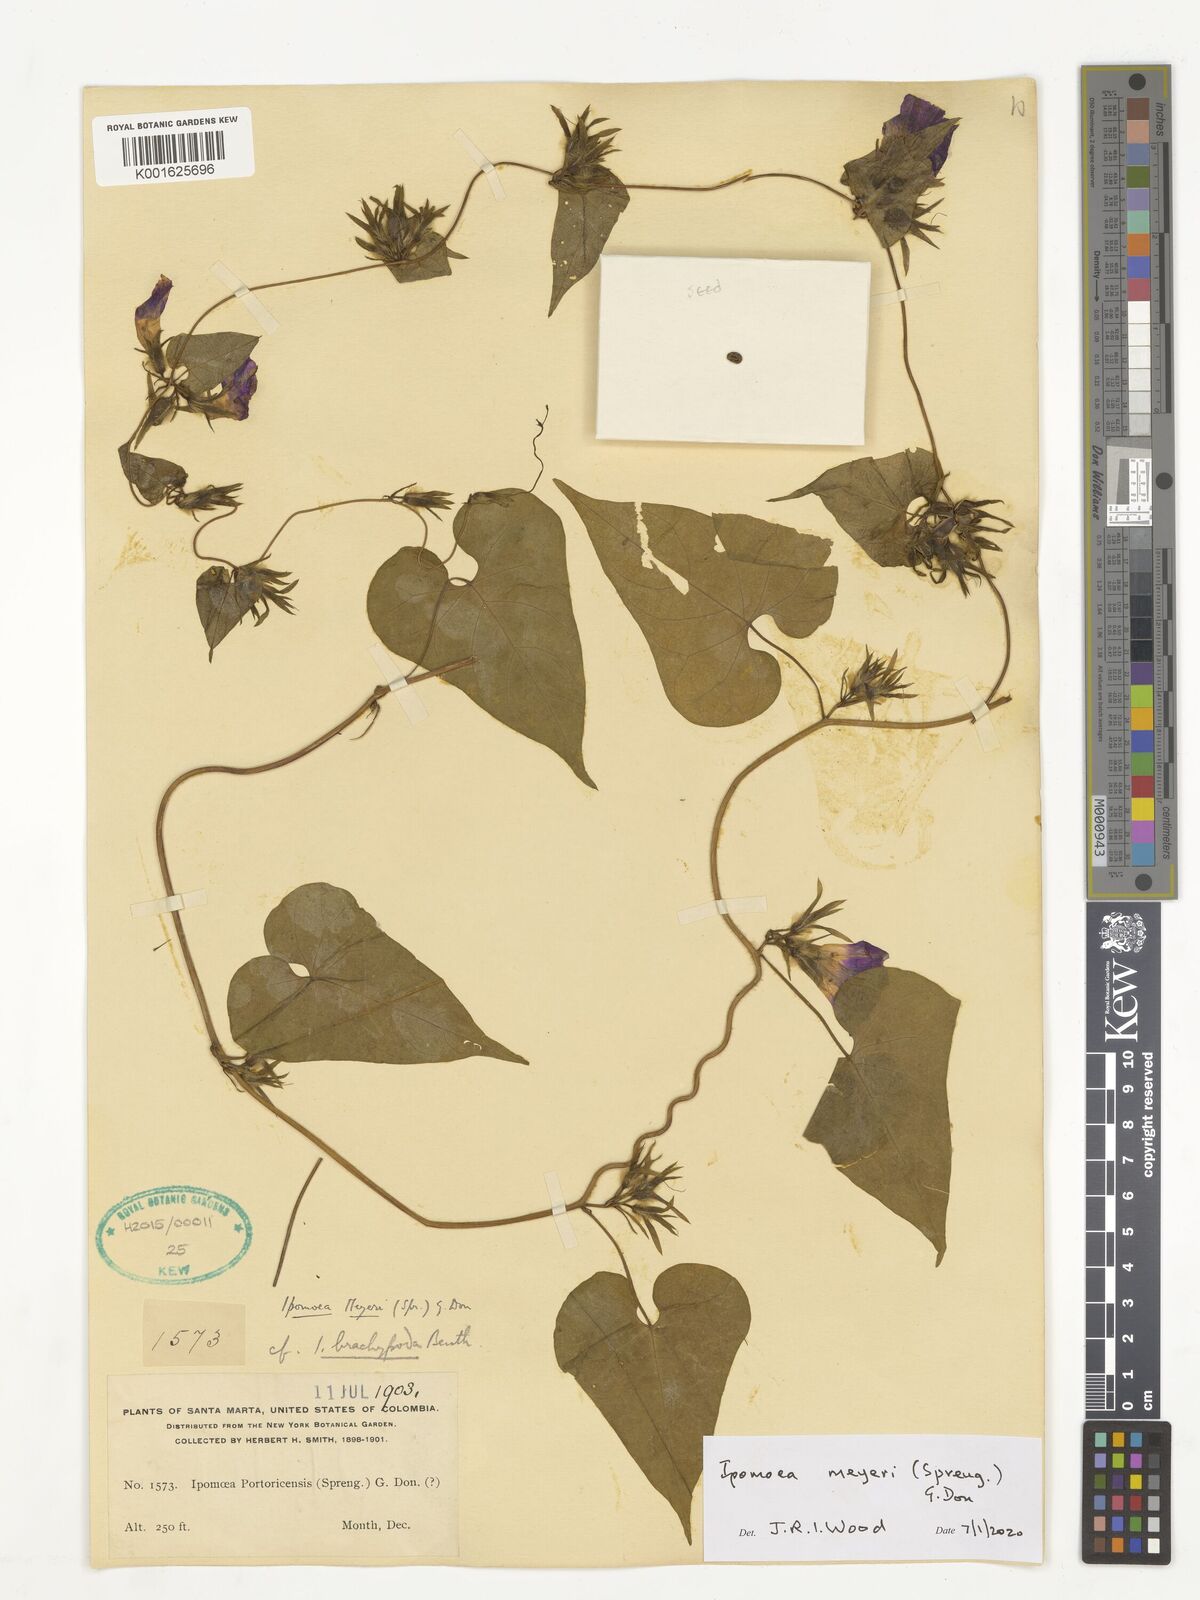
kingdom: Plantae
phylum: Tracheophyta
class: Magnoliopsida
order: Solanales
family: Convolvulaceae
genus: Ipomoea
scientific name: Ipomoea meyeri
